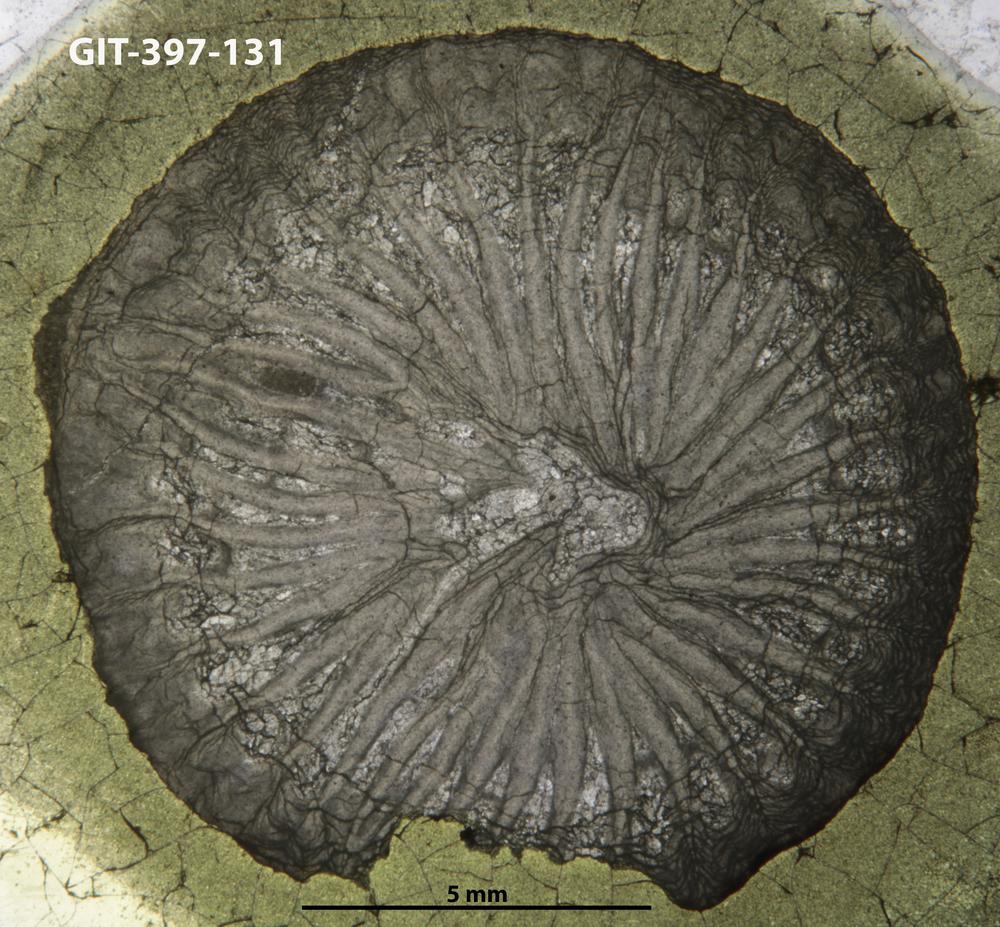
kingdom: Animalia
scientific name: Animalia
